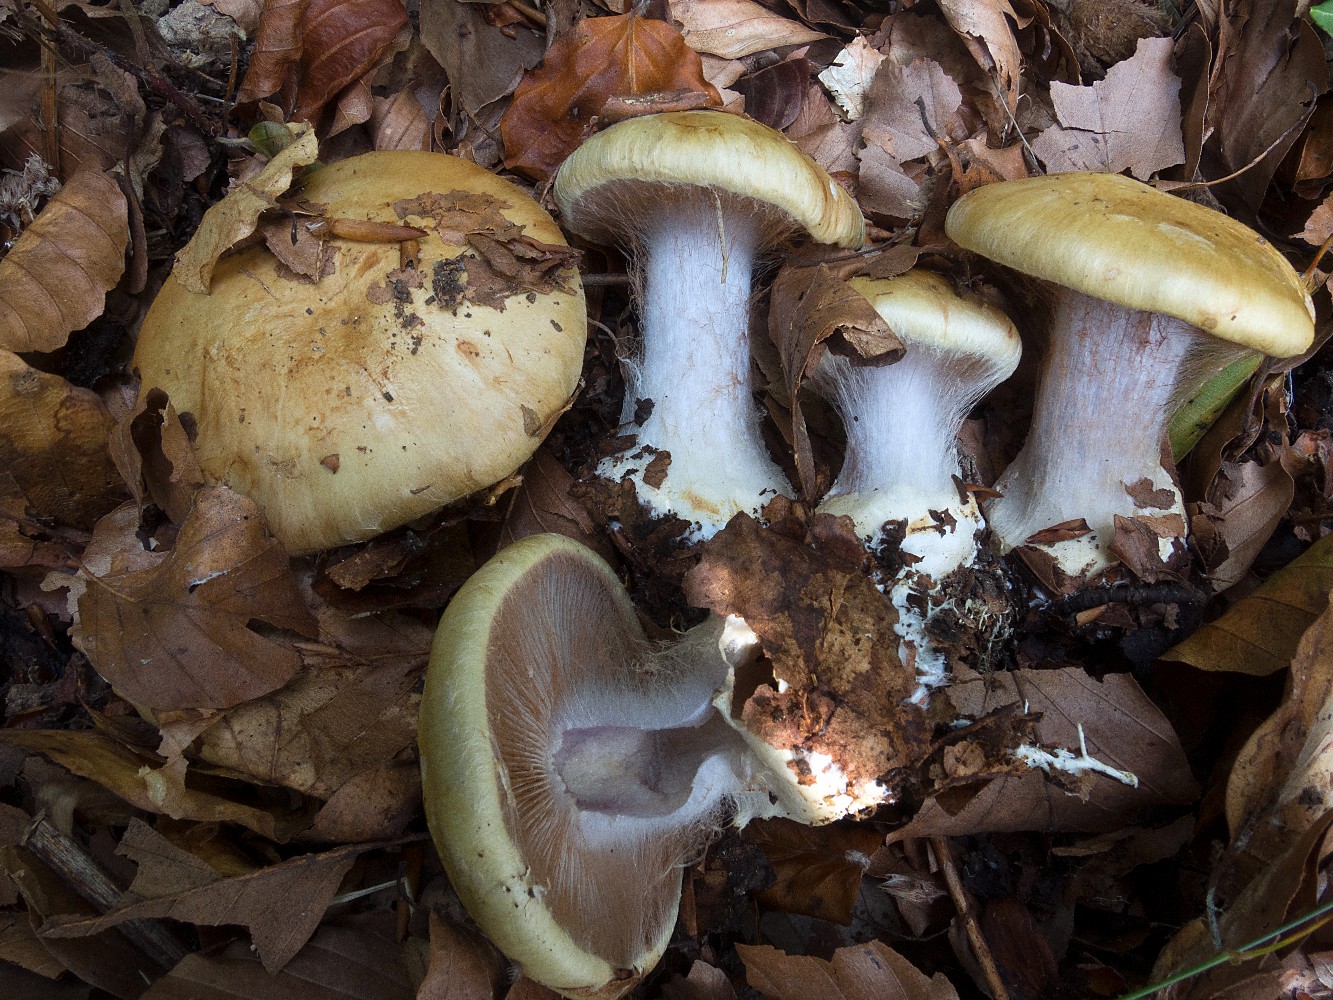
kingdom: Fungi
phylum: Basidiomycota
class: Agaricomycetes
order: Agaricales
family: Cortinariaceae
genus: Cortinarius
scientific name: Cortinarius anserinus
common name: bøge-slørhat
